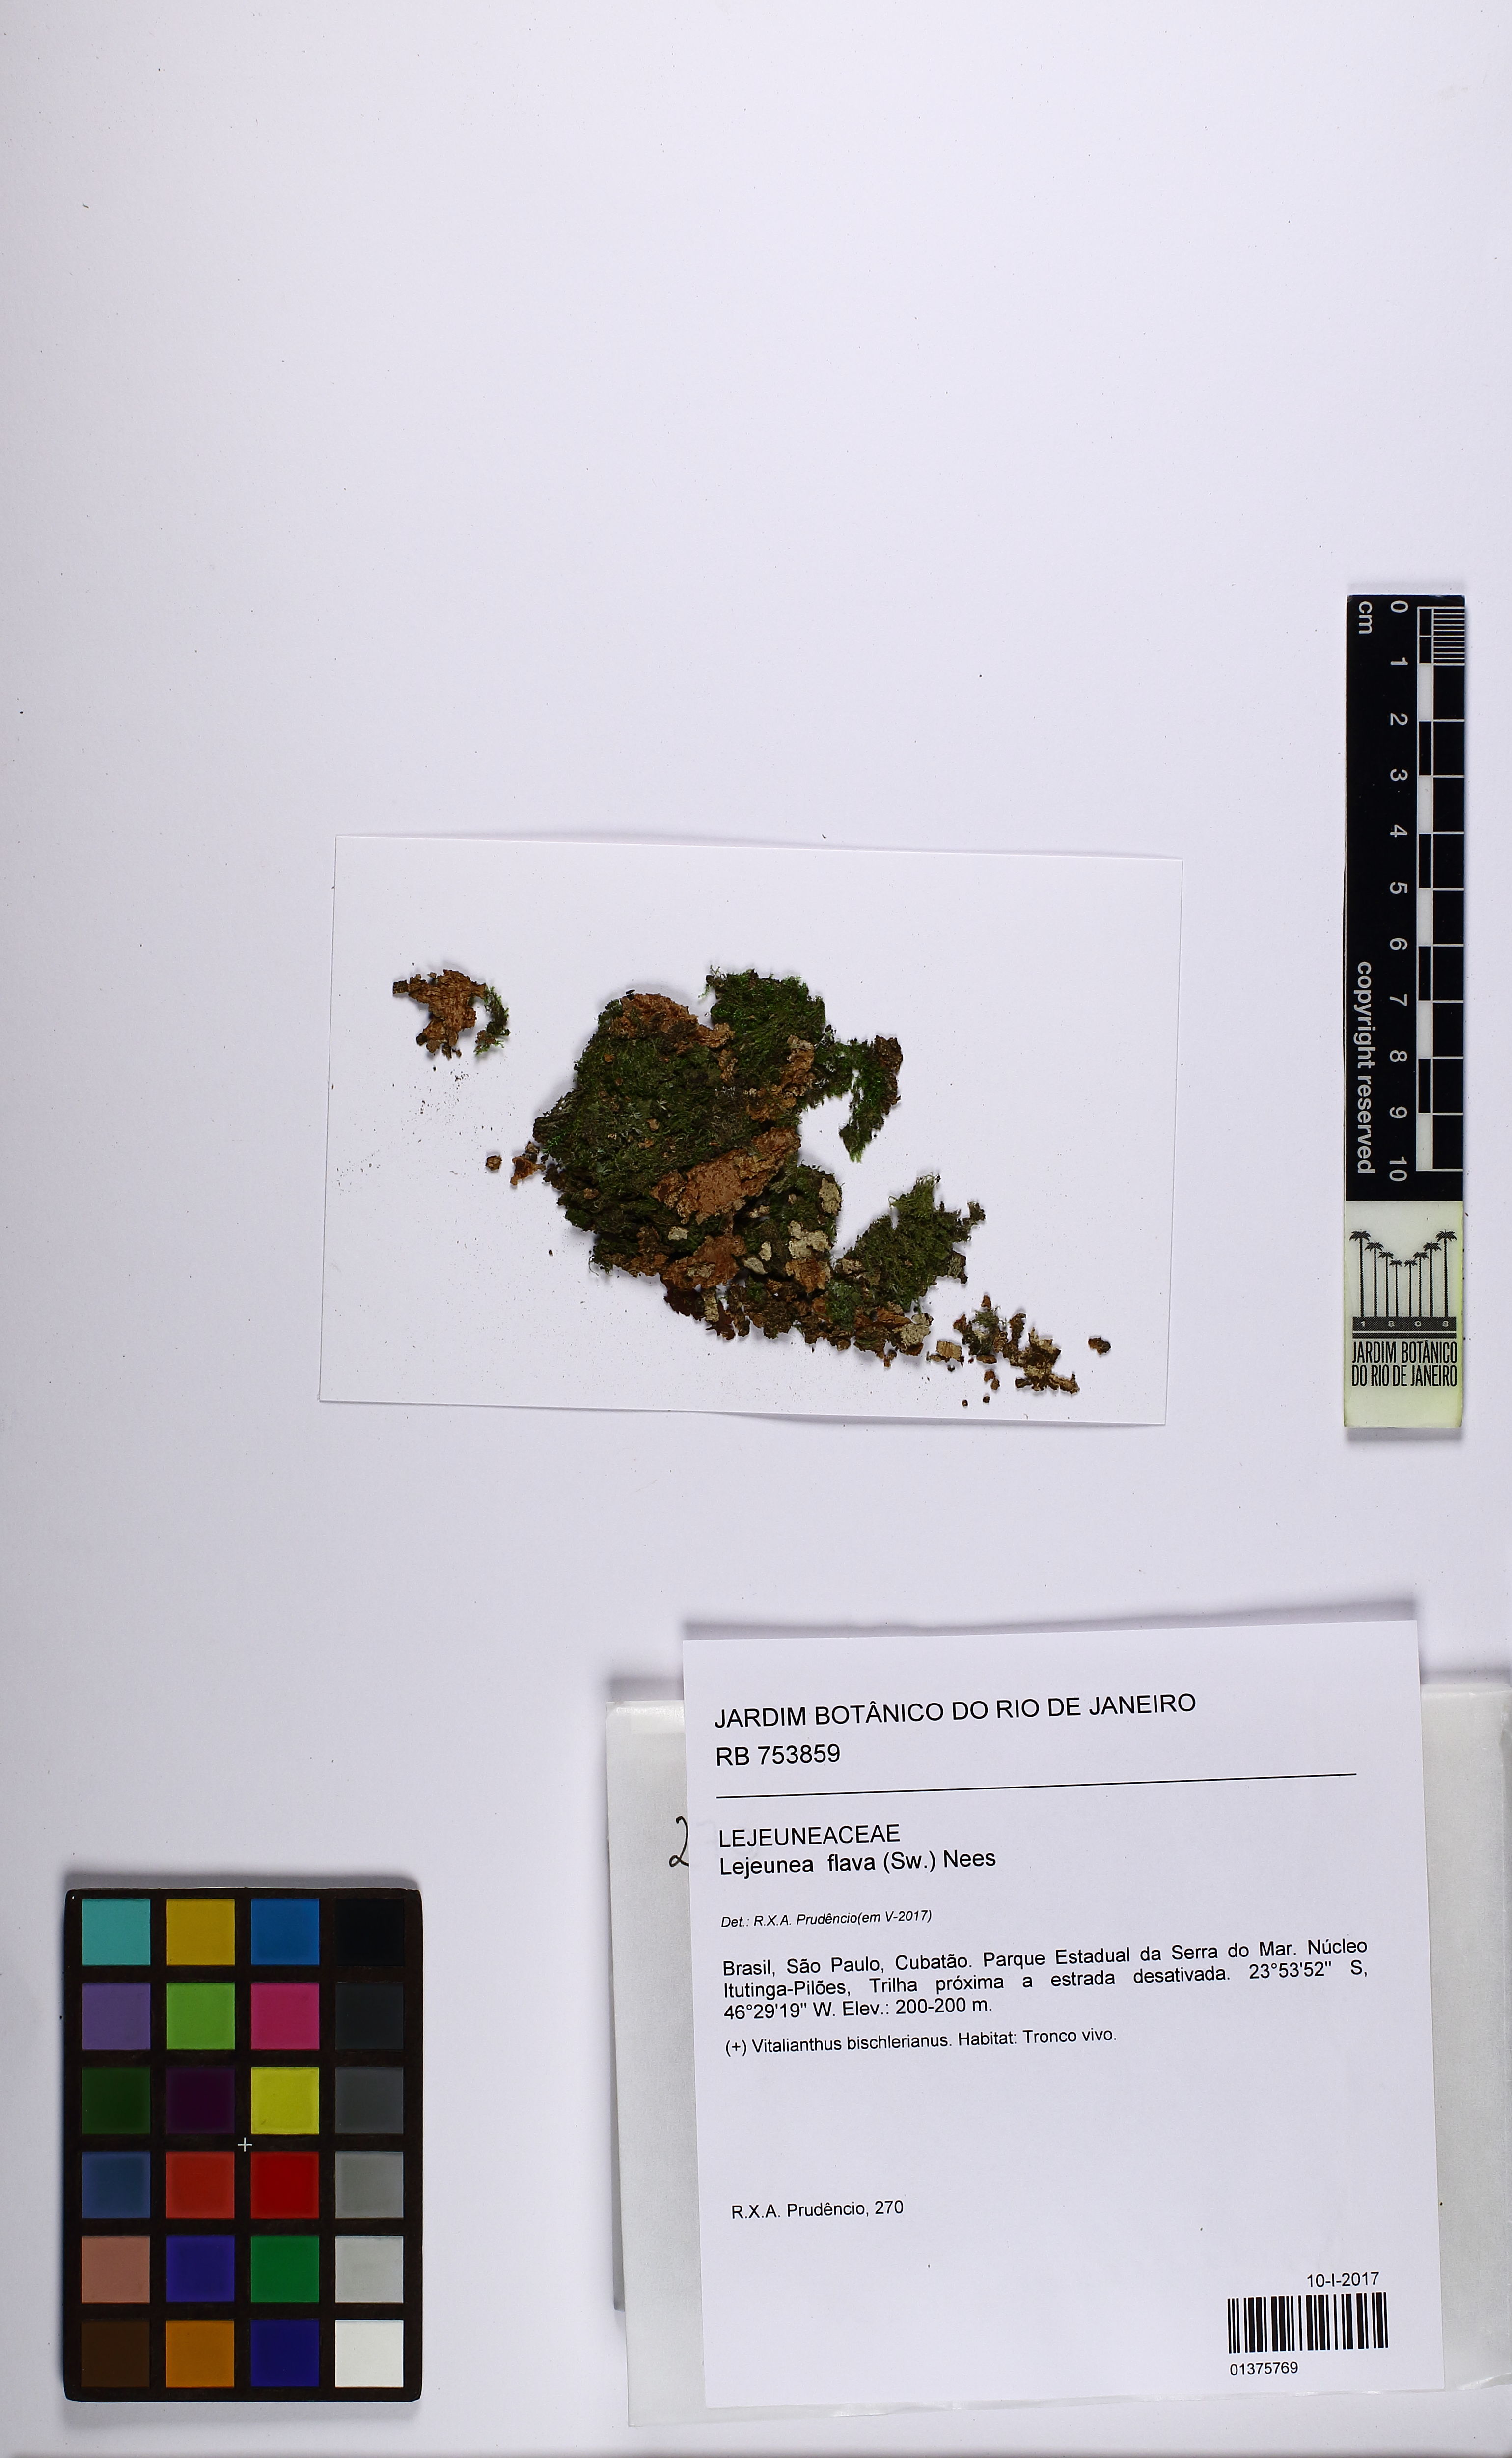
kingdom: Plantae
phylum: Marchantiophyta
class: Jungermanniopsida
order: Porellales
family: Lejeuneaceae
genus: Lejeunea
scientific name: Lejeunea flava
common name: Yellow pouncewort
